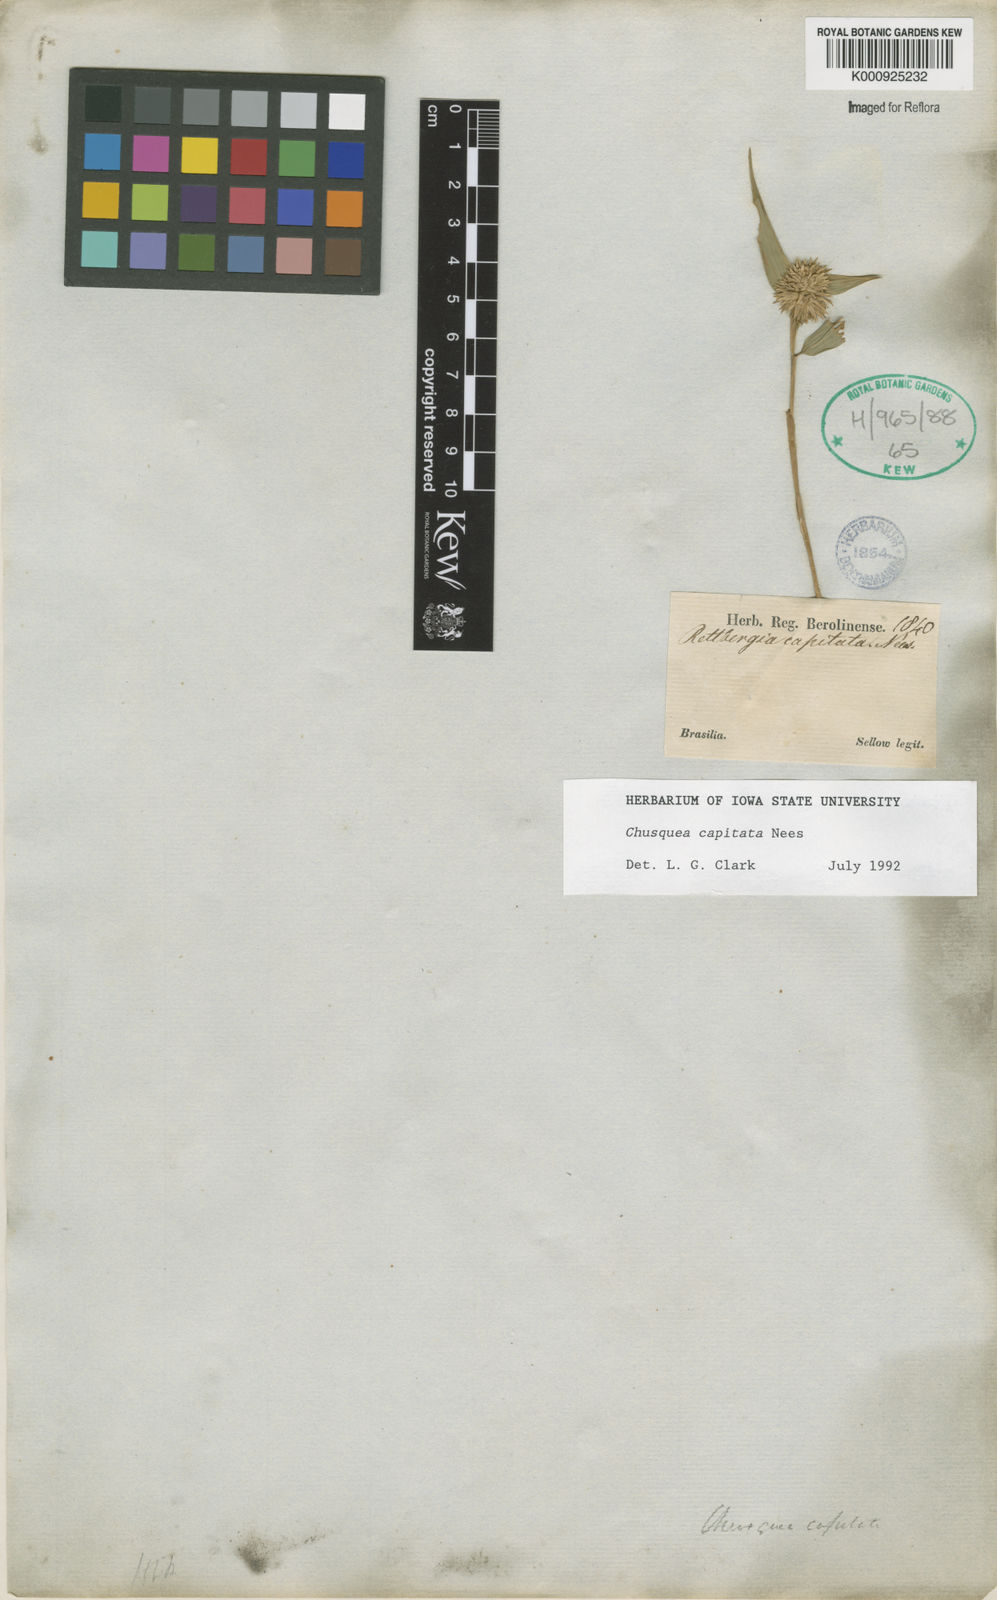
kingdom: Plantae
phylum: Tracheophyta
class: Liliopsida
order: Poales
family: Poaceae
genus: Chusquea
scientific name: Chusquea capitata
